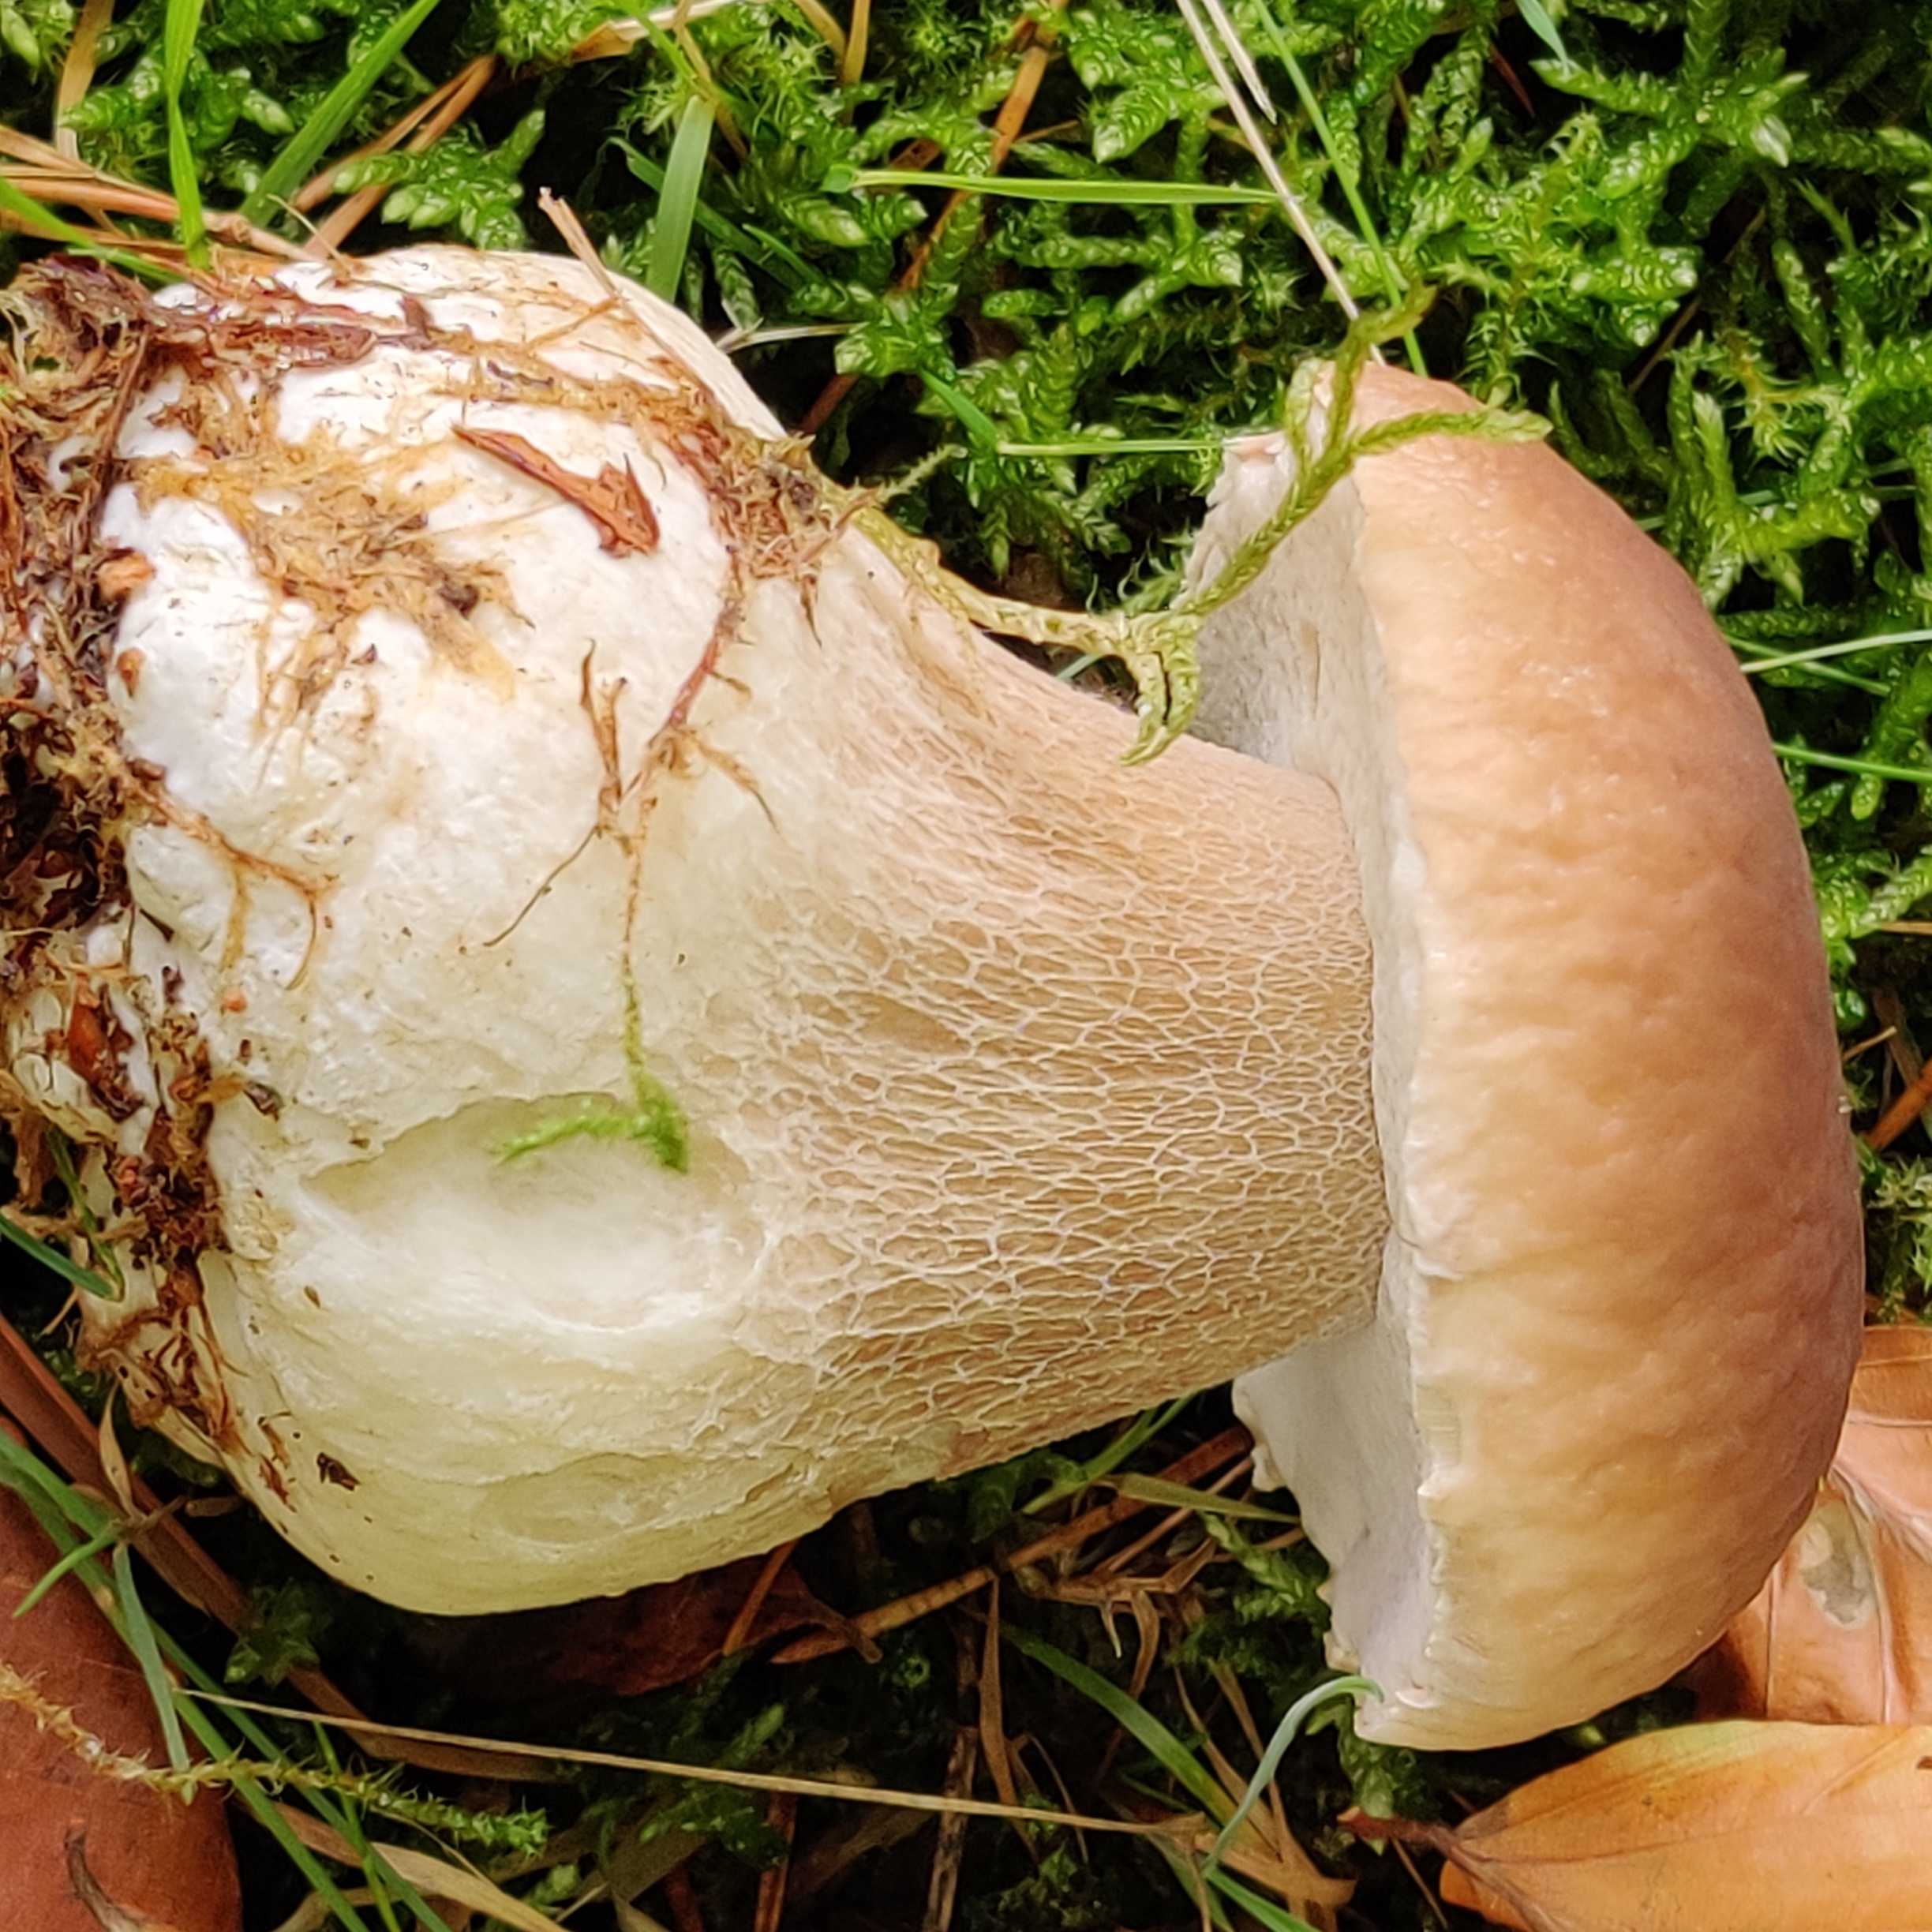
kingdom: Fungi
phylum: Basidiomycota
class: Agaricomycetes
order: Boletales
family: Boletaceae
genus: Boletus
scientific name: Boletus edulis
